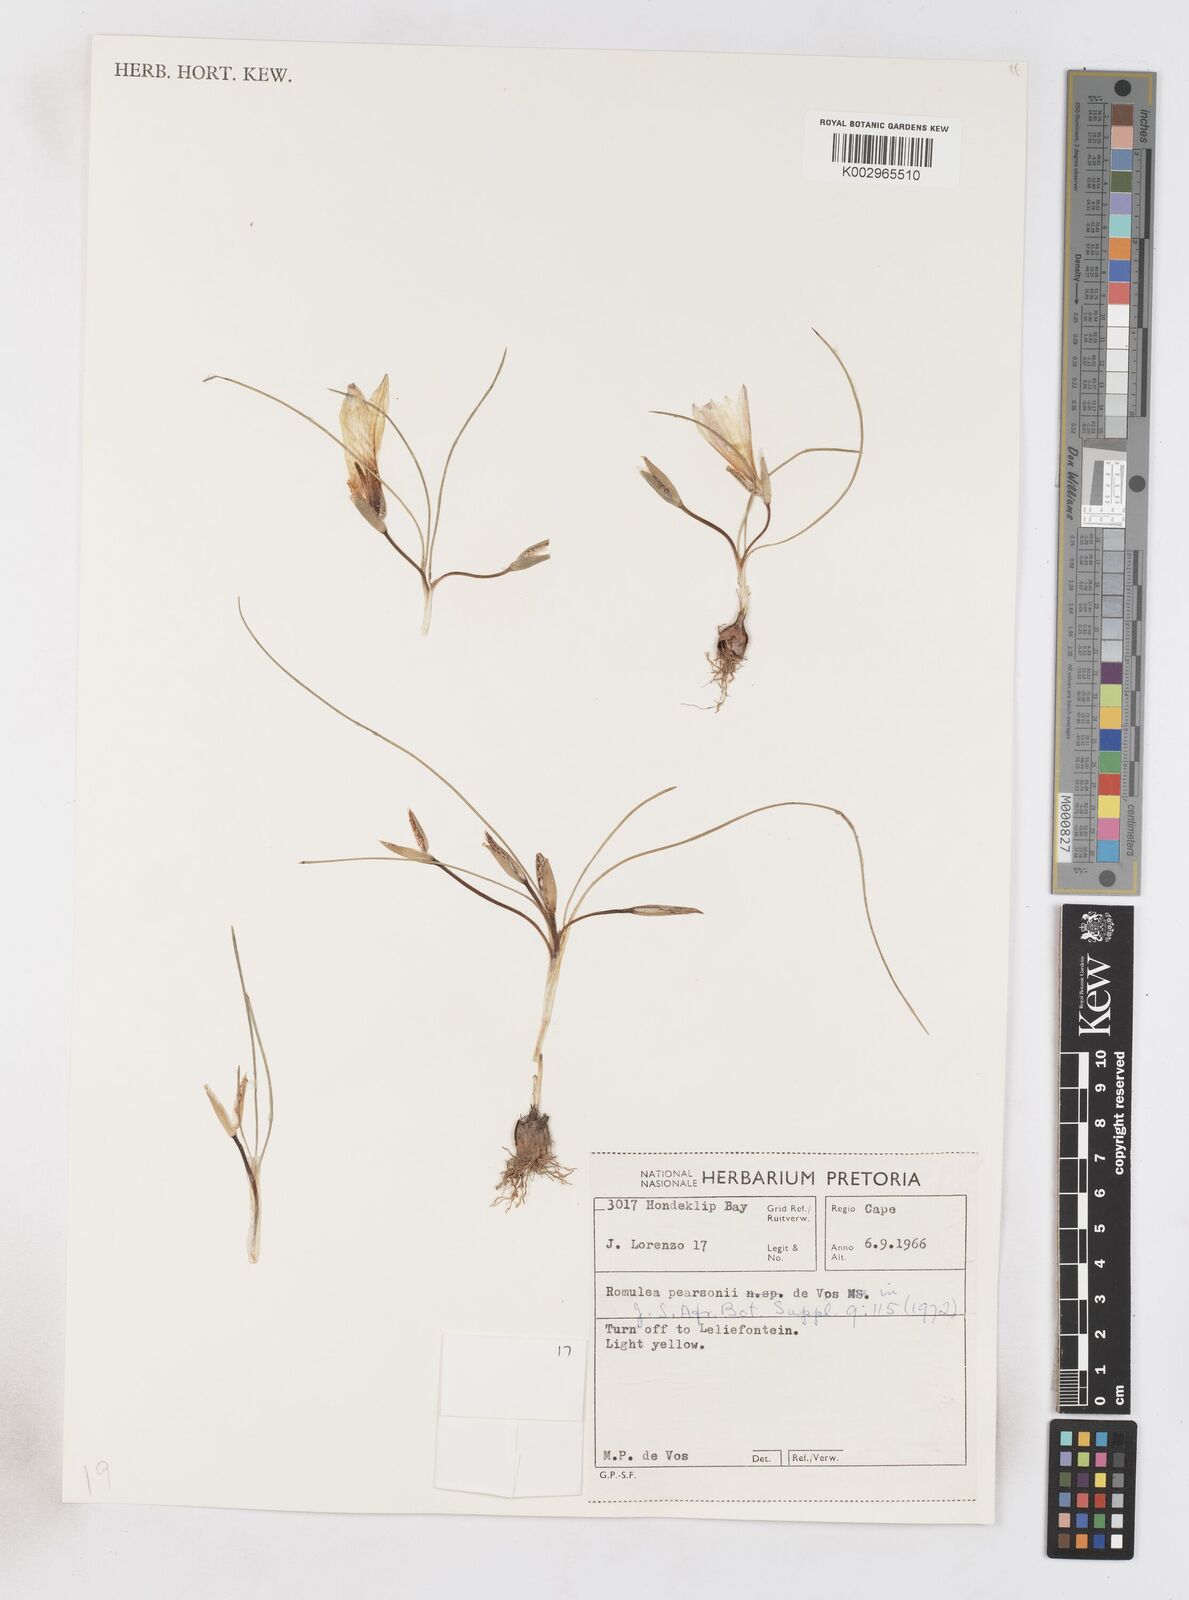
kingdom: Plantae
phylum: Tracheophyta
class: Liliopsida
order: Asparagales
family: Iridaceae
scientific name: Iridaceae
